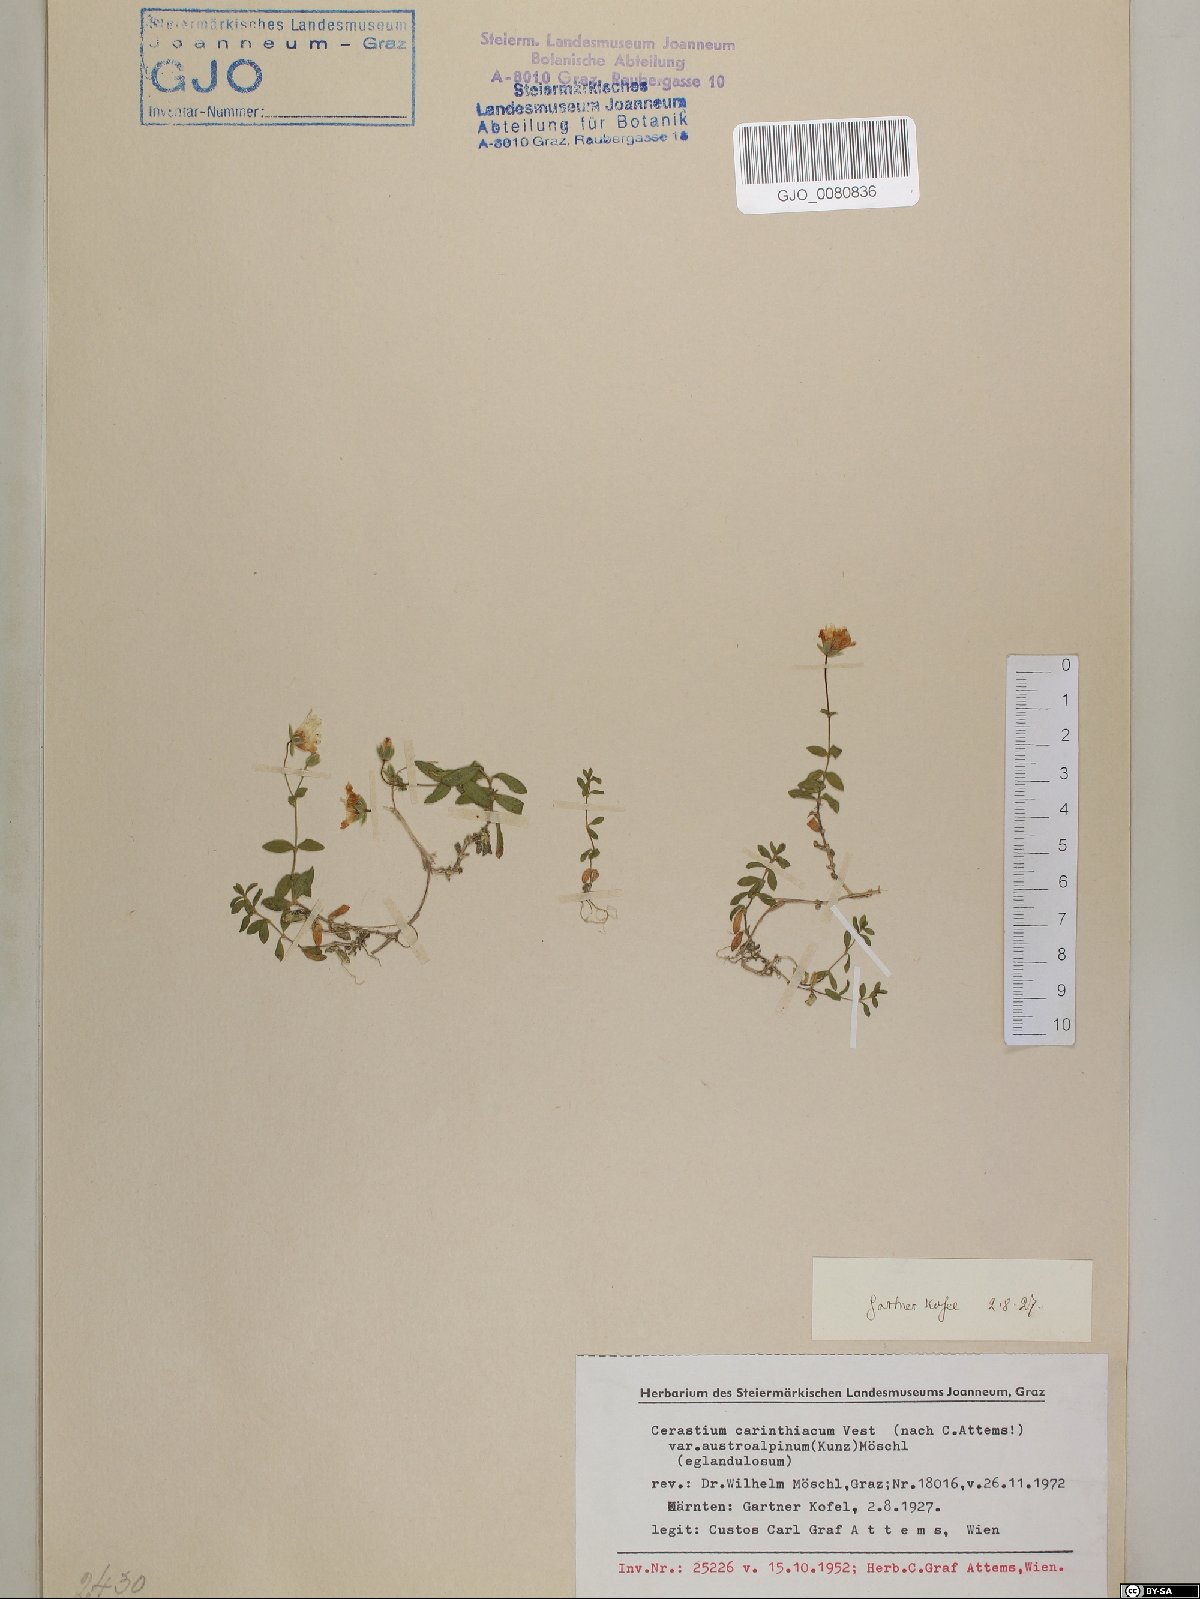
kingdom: Plantae
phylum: Tracheophyta
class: Magnoliopsida
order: Caryophyllales
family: Caryophyllaceae
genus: Cerastium
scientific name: Cerastium carinthiacum
